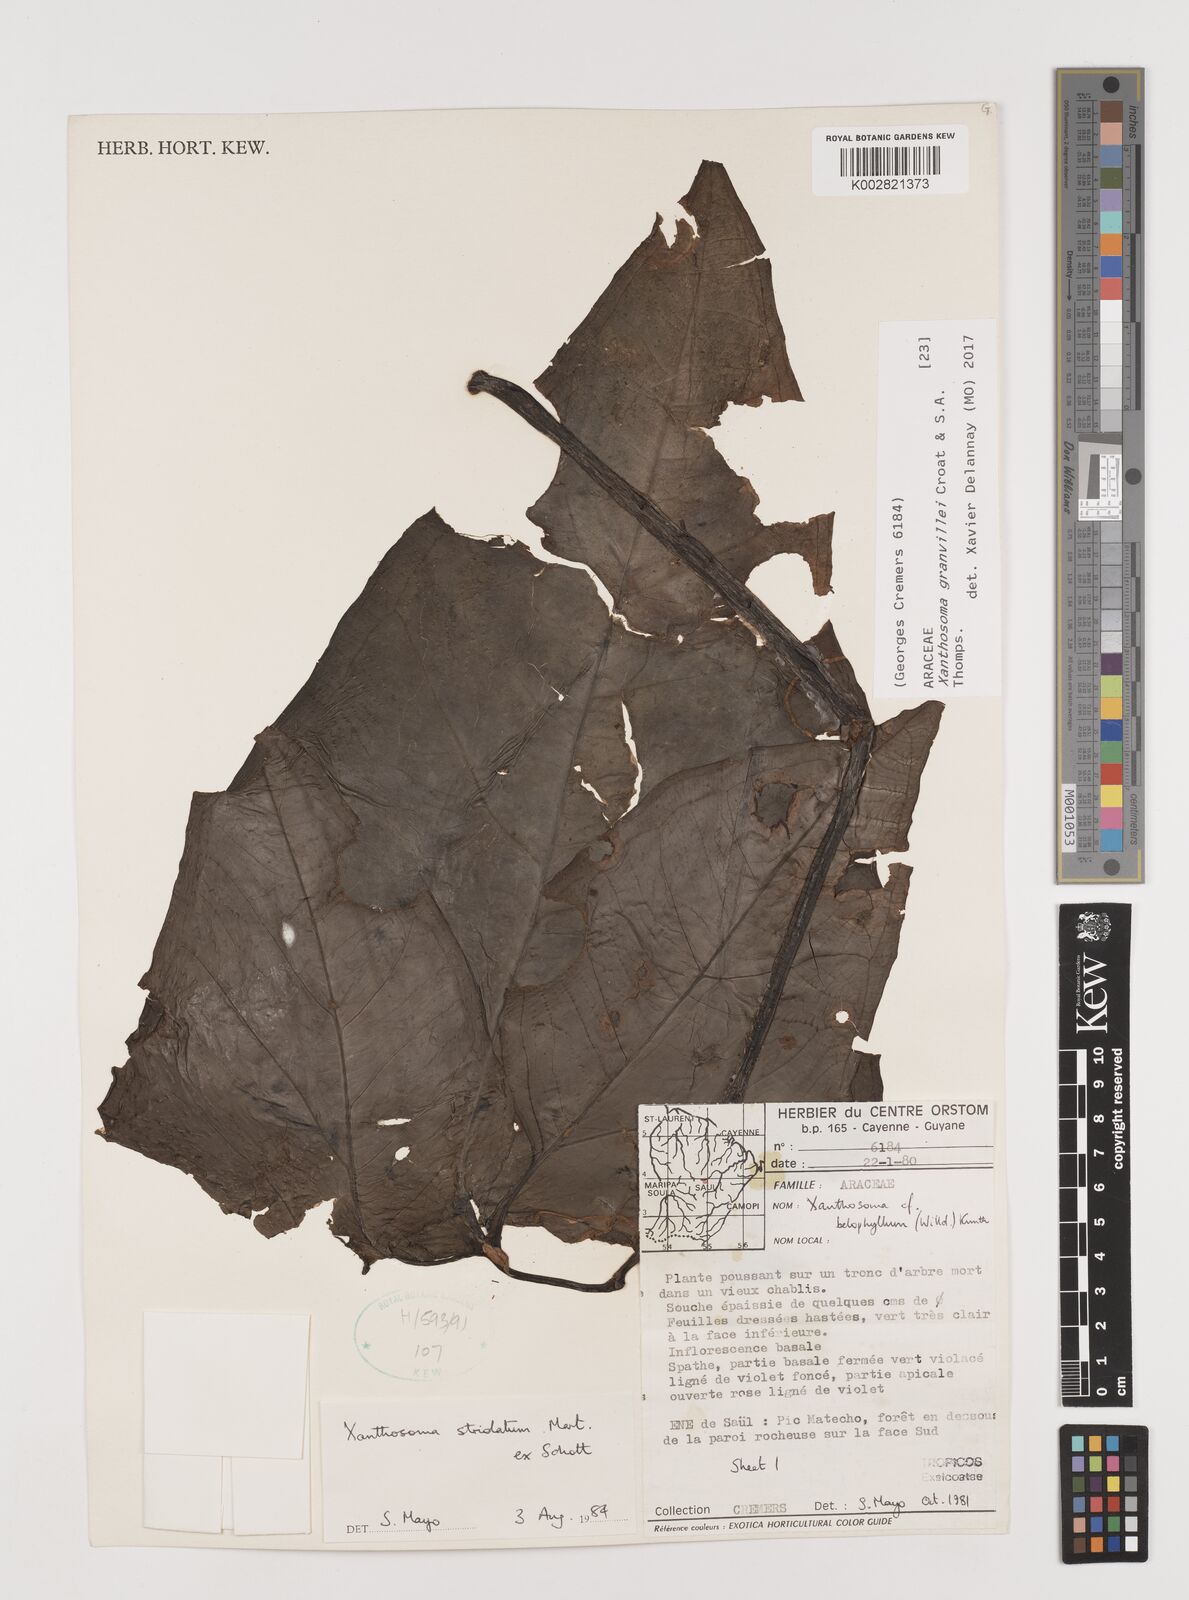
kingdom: Plantae
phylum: Tracheophyta
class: Liliopsida
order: Alismatales
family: Araceae
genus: Xanthosoma
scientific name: Xanthosoma granvillei
